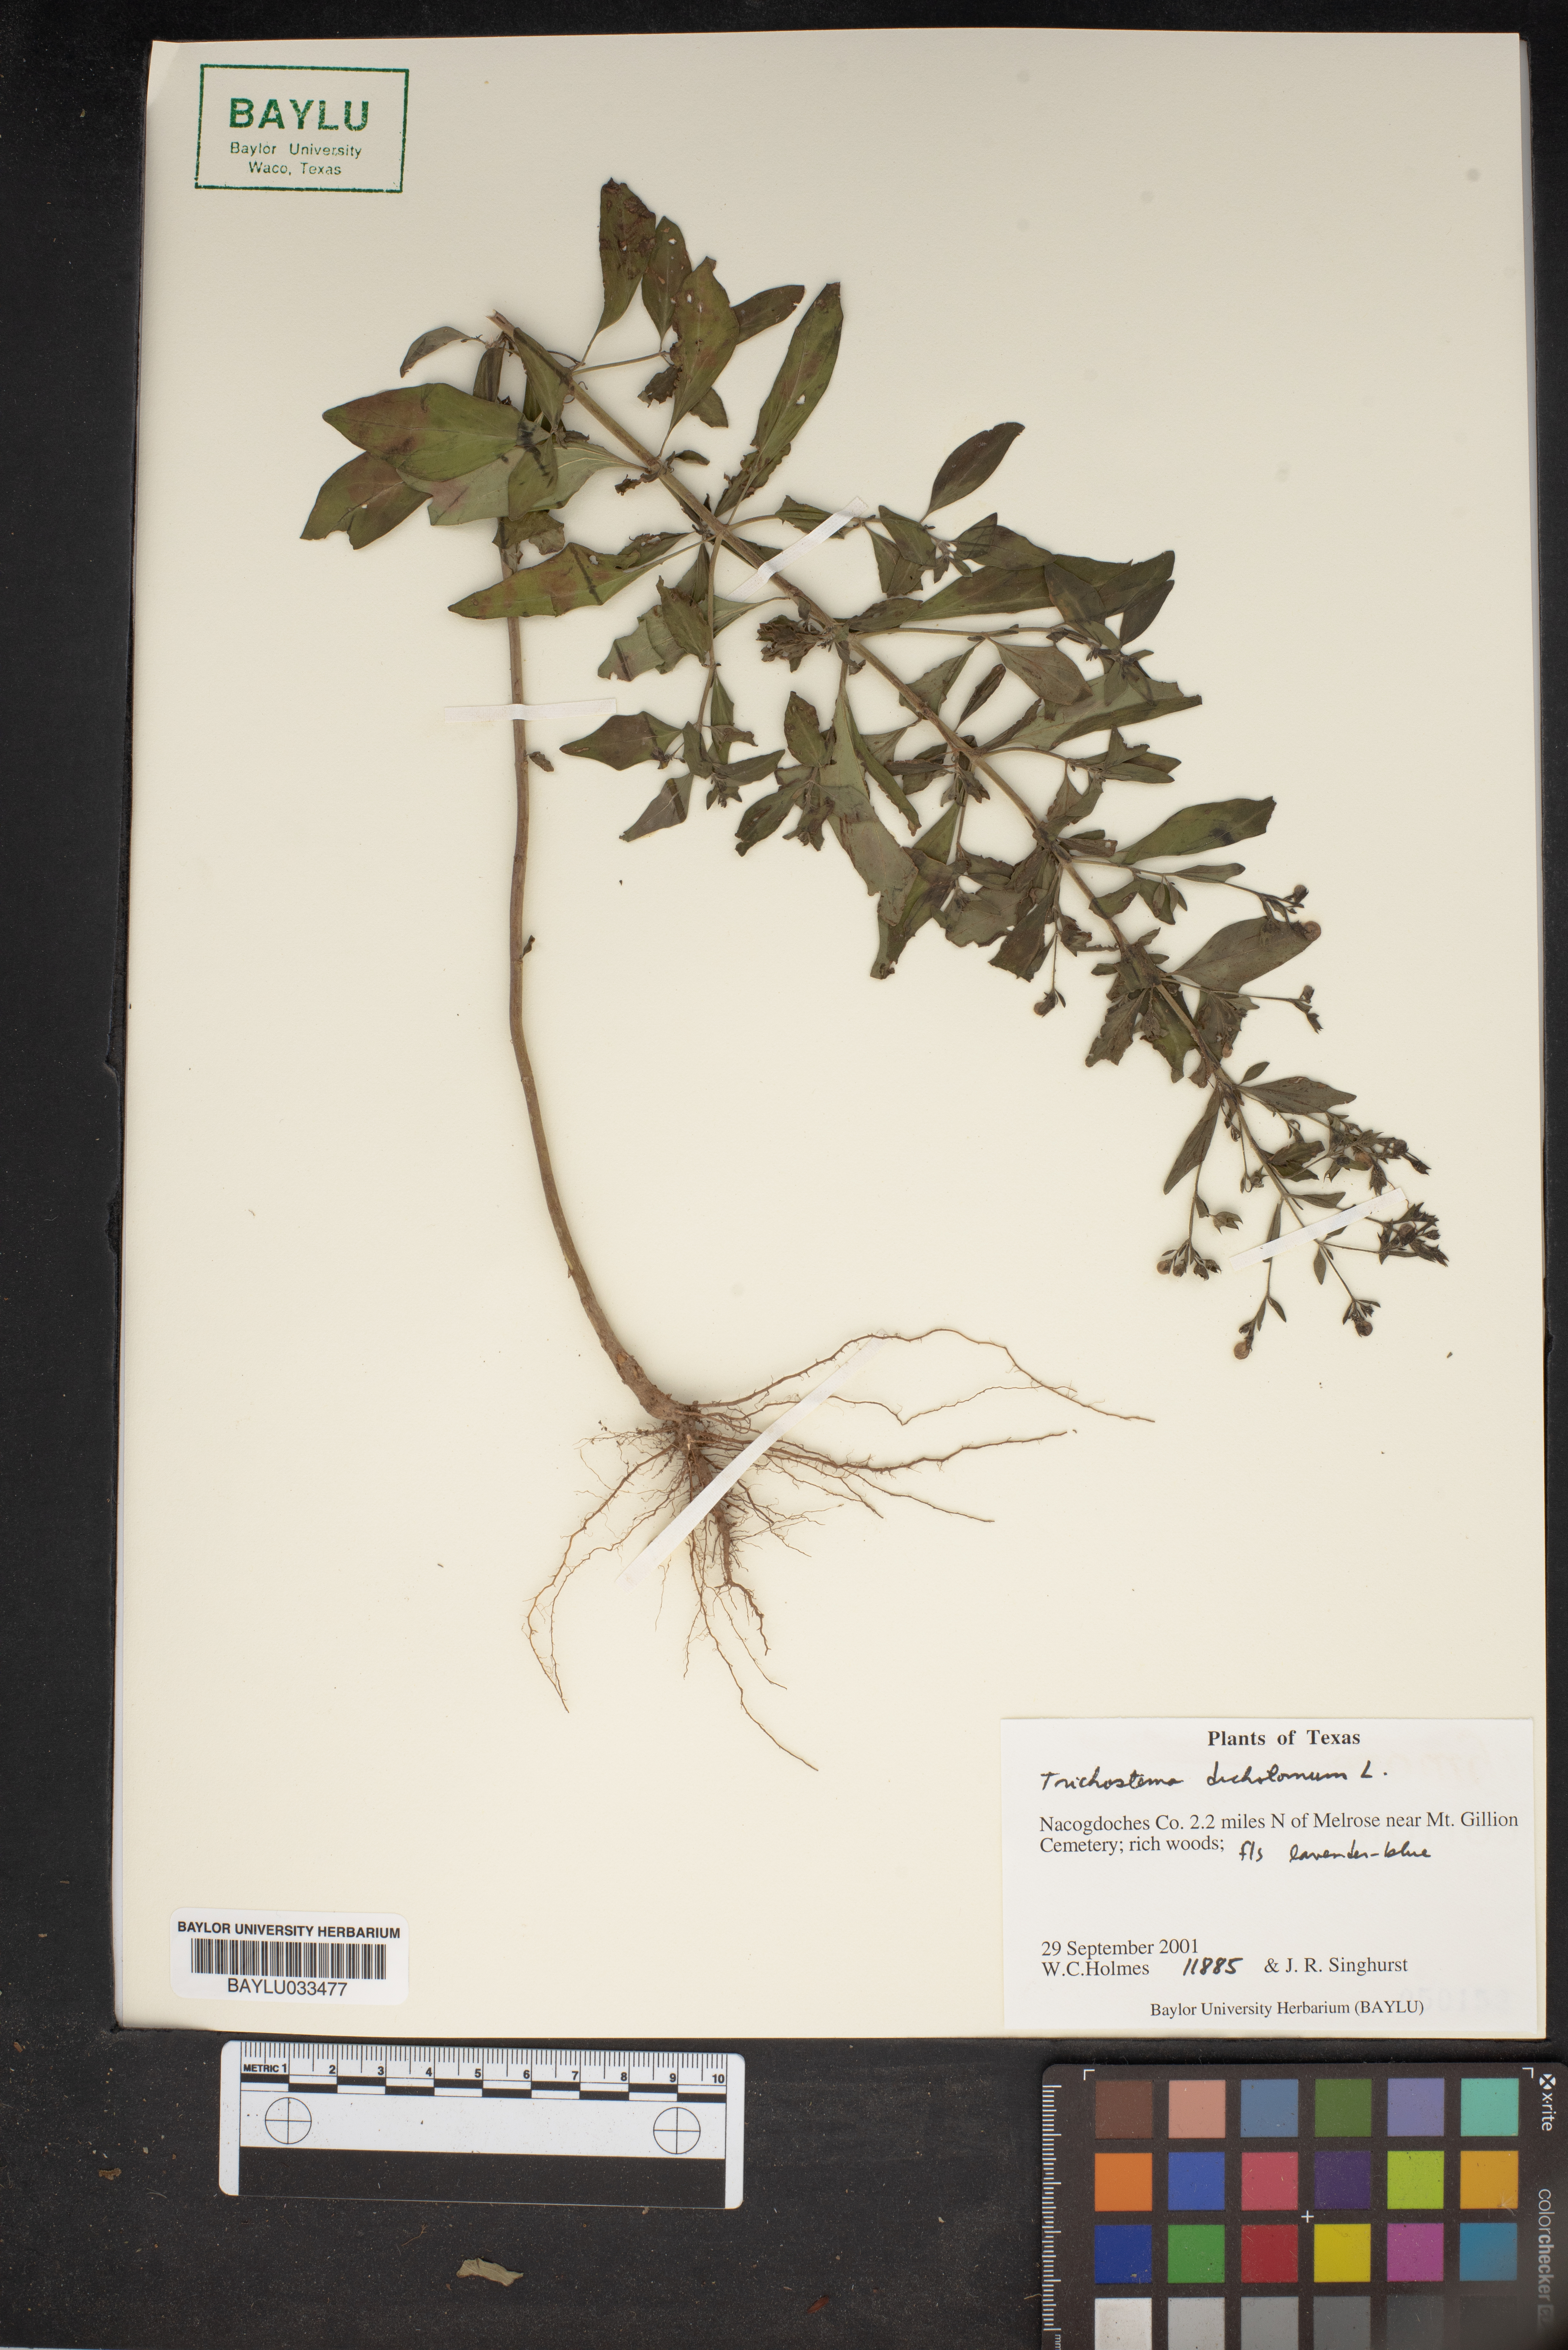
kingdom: Plantae
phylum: Tracheophyta
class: Magnoliopsida
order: Lamiales
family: Lamiaceae
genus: Trichostema
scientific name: Trichostema dichotomum
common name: Bastard pennyroyal
